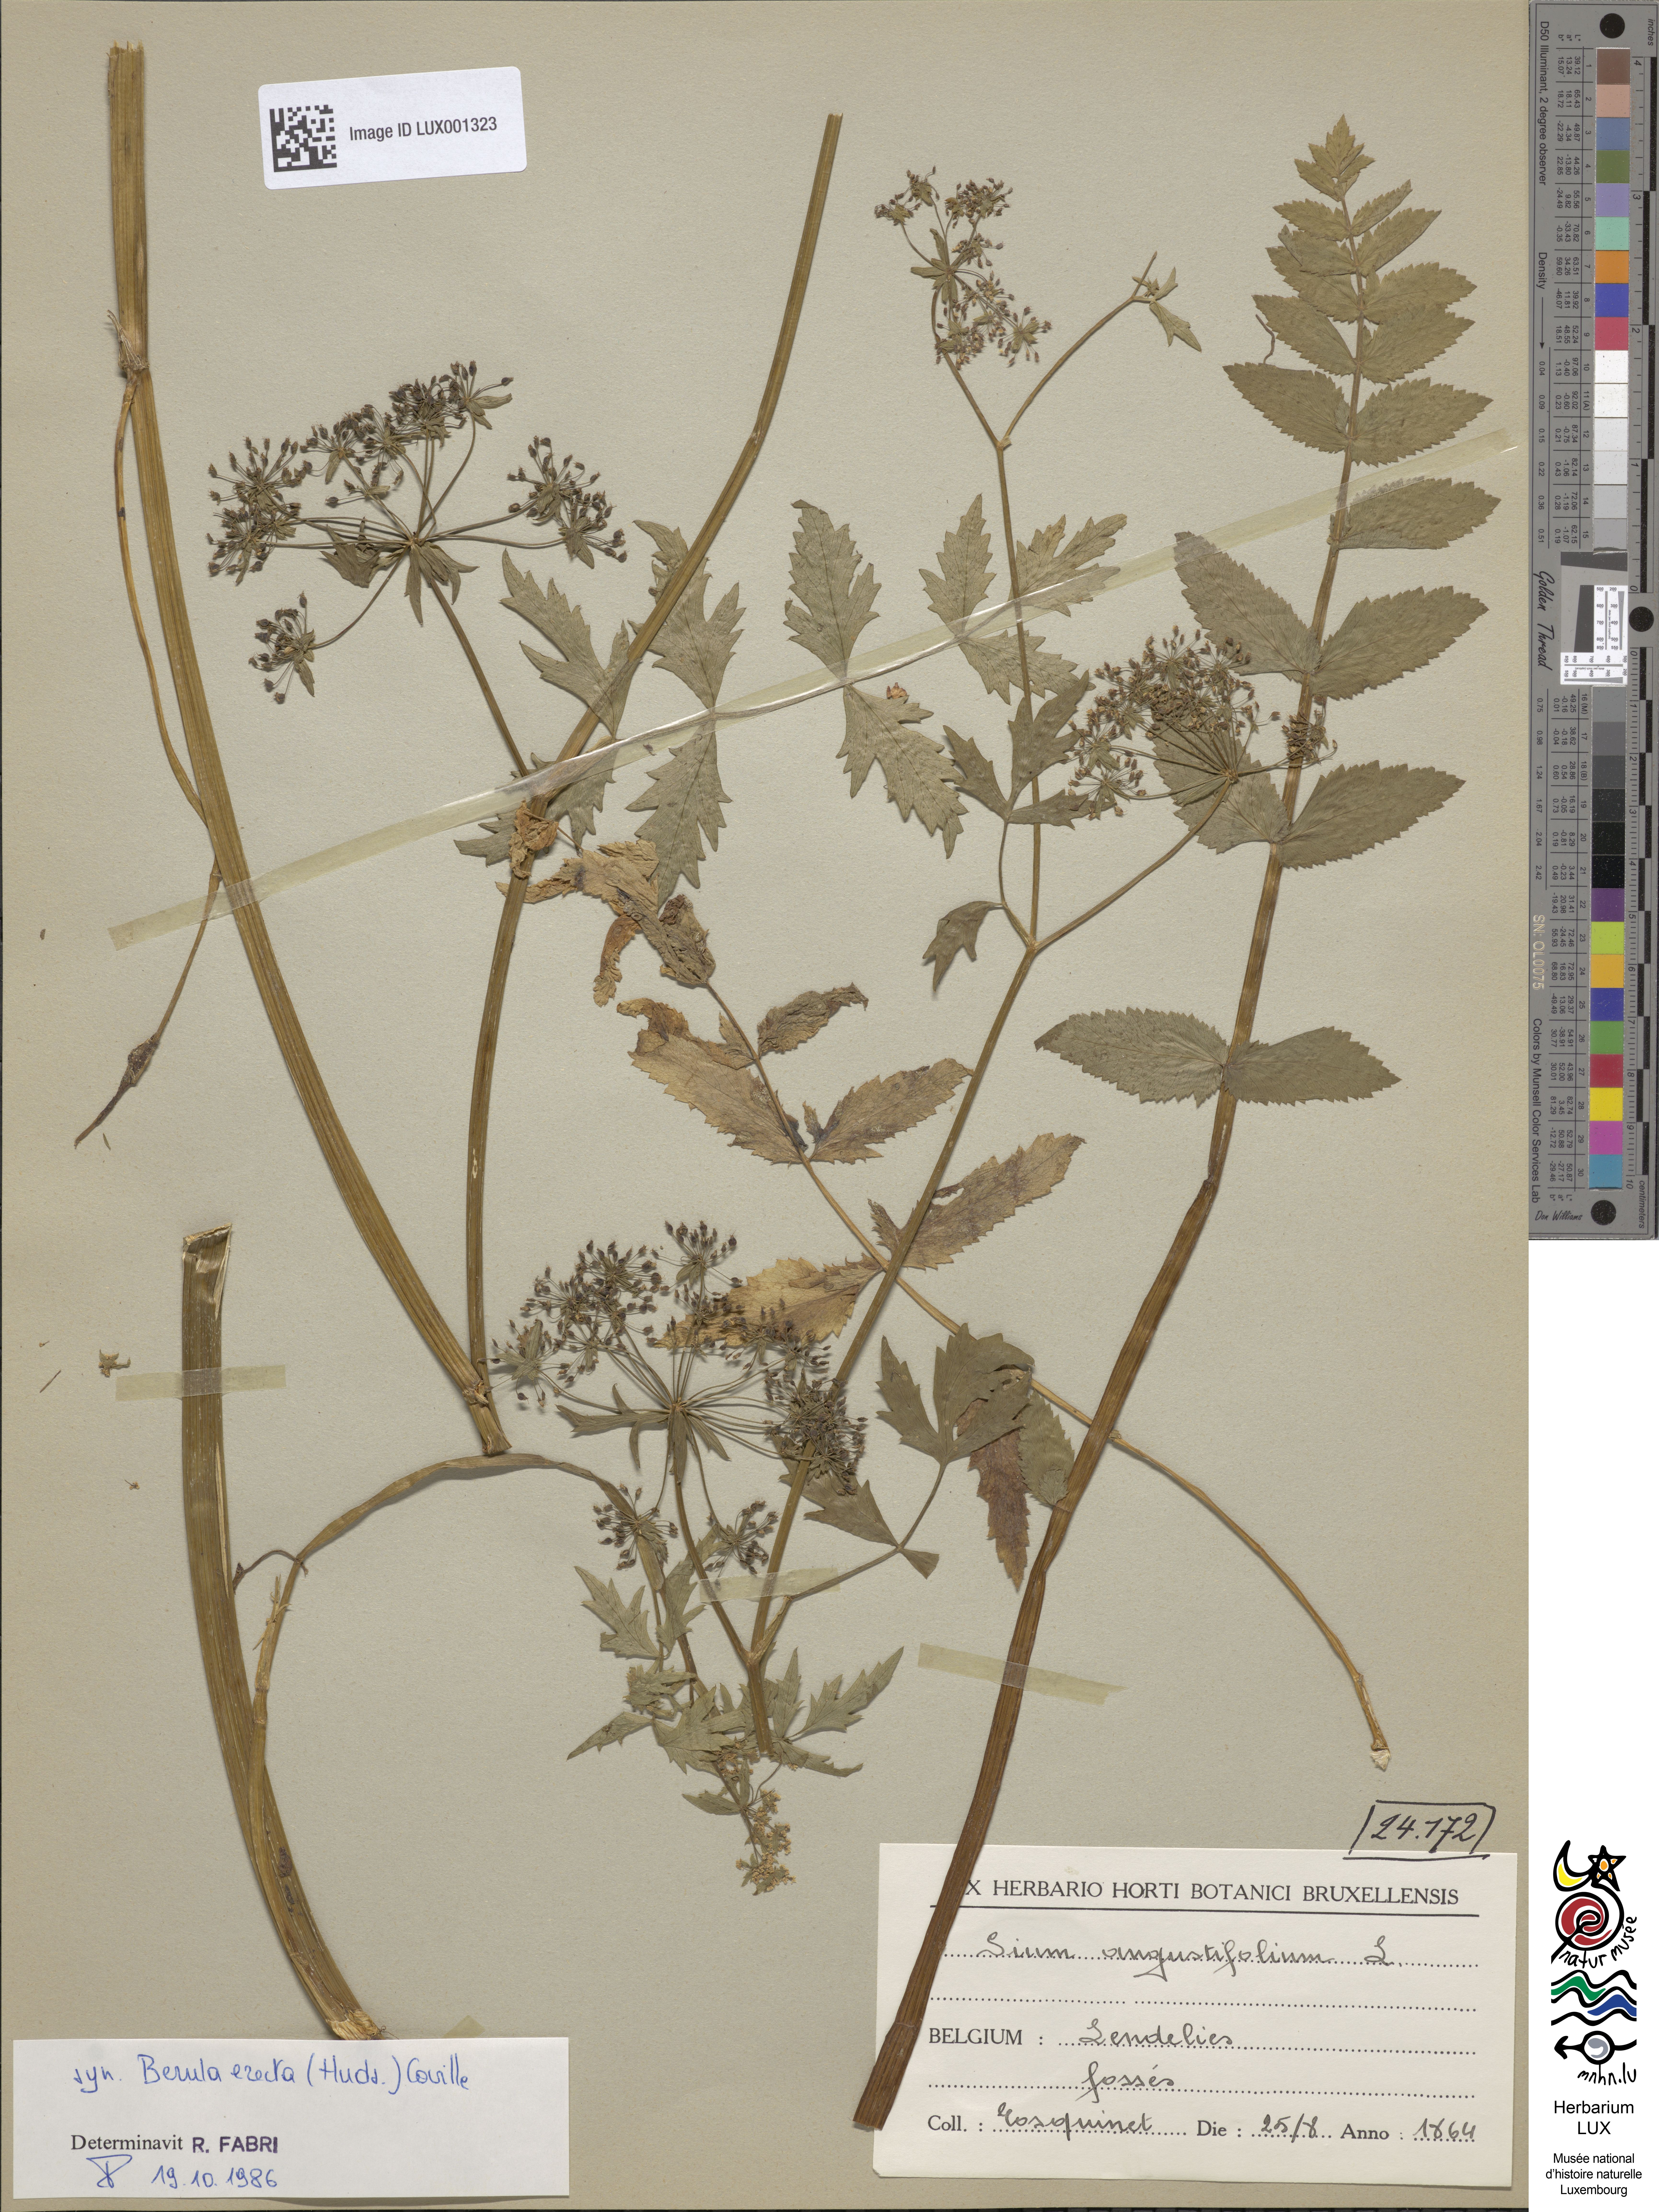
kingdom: Plantae
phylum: Tracheophyta
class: Magnoliopsida
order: Apiales
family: Apiaceae
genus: Berula
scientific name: Berula erecta
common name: Lesser water-parsnip
